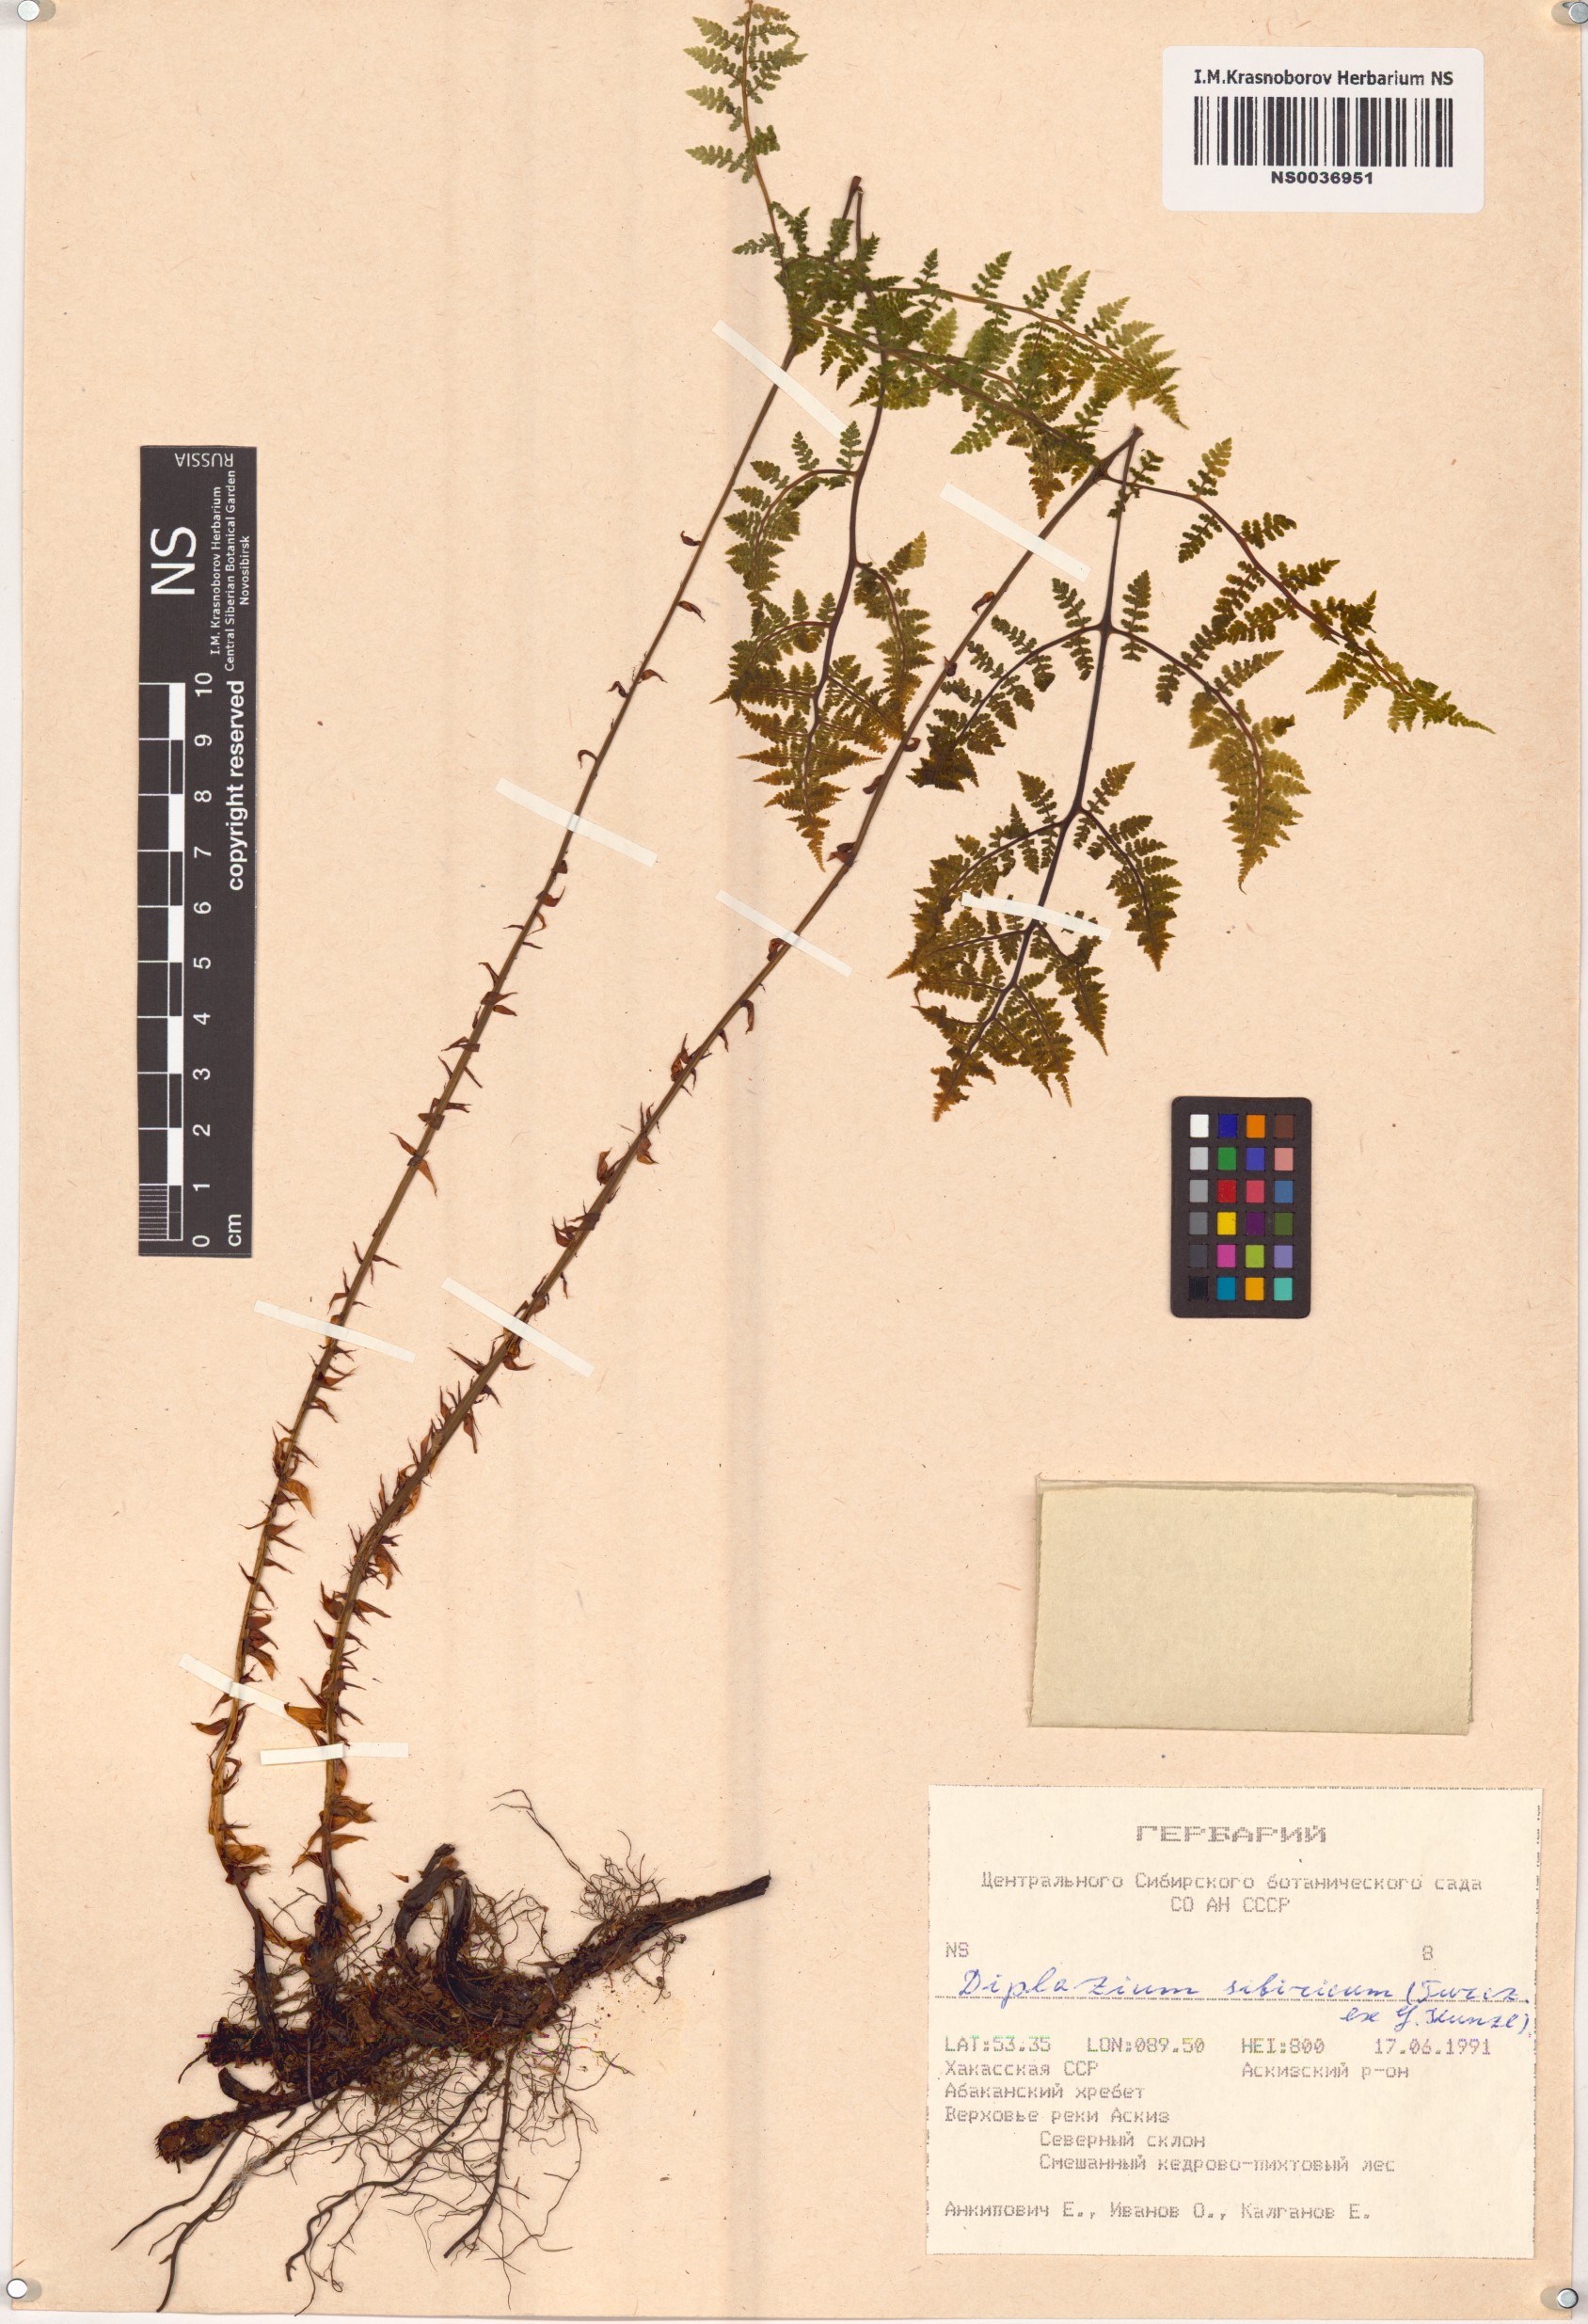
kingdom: Plantae
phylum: Tracheophyta
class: Polypodiopsida
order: Polypodiales
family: Athyriaceae
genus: Diplazium
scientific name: Diplazium sibiricum
